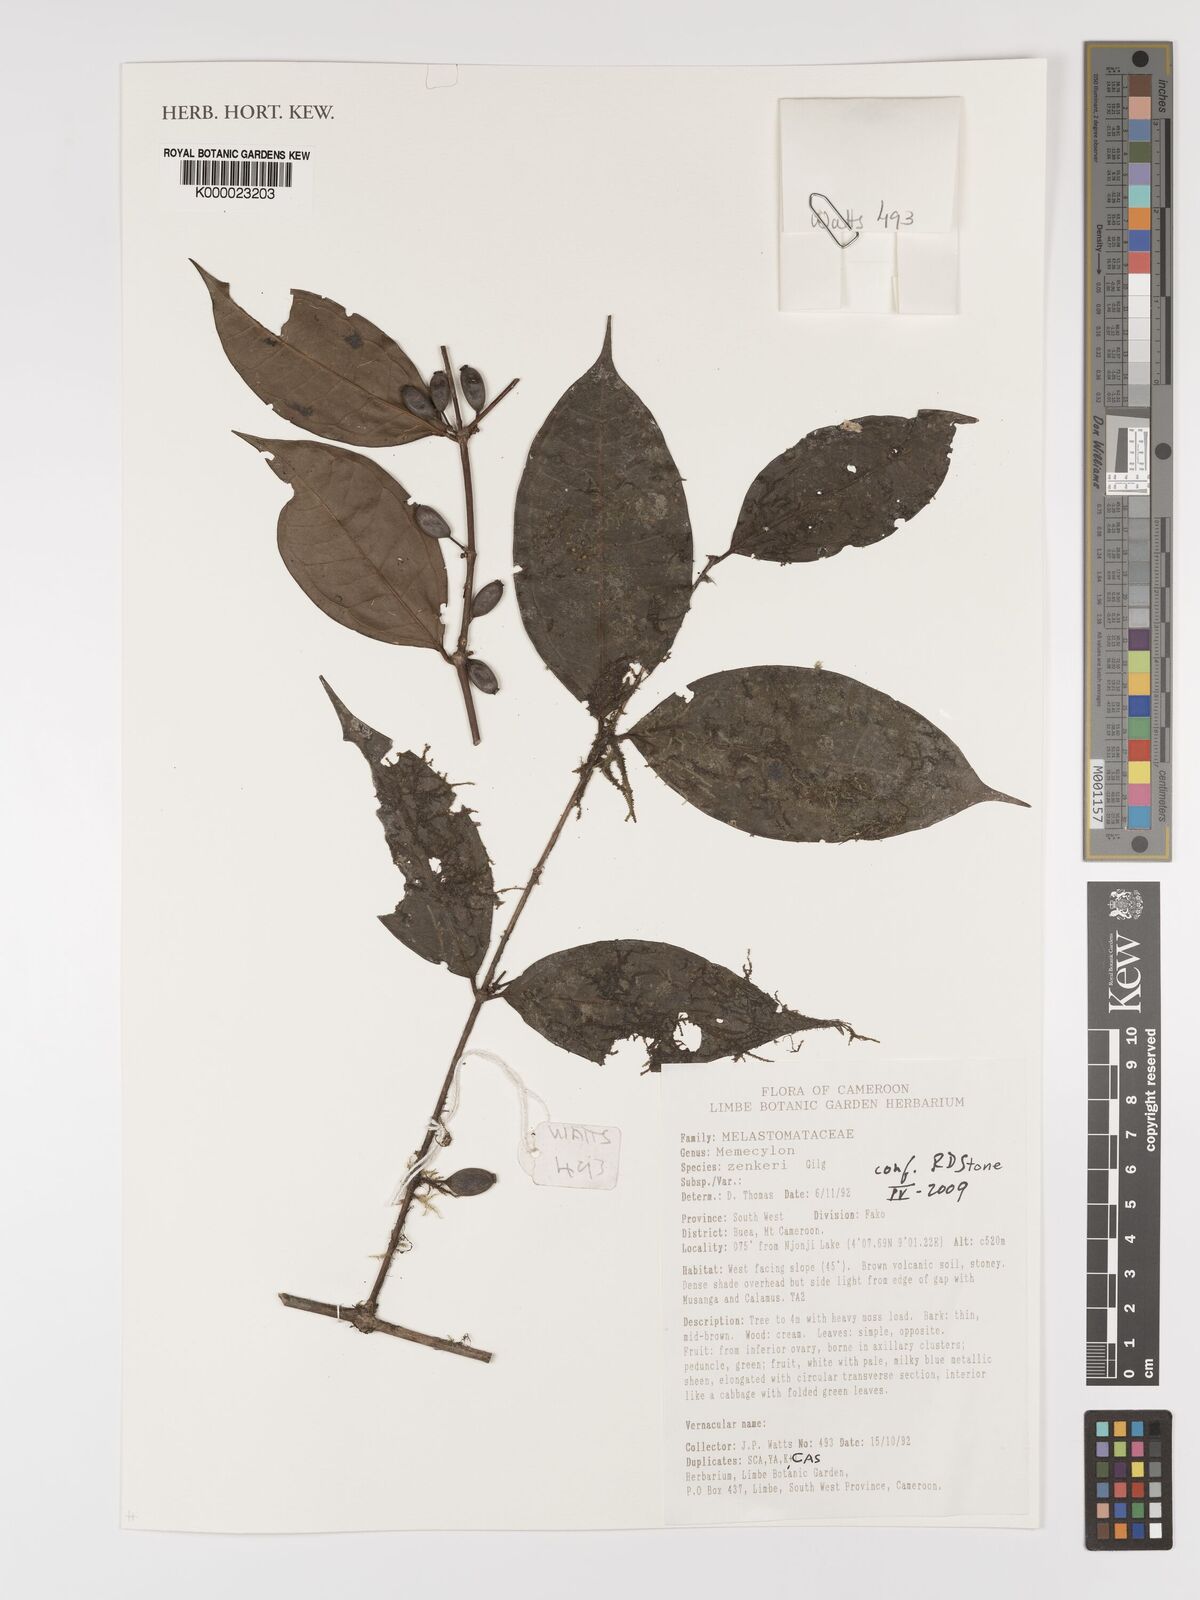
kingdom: Plantae
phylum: Tracheophyta
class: Magnoliopsida
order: Myrtales
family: Melastomataceae
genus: Memecylon
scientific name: Memecylon zenkeri
